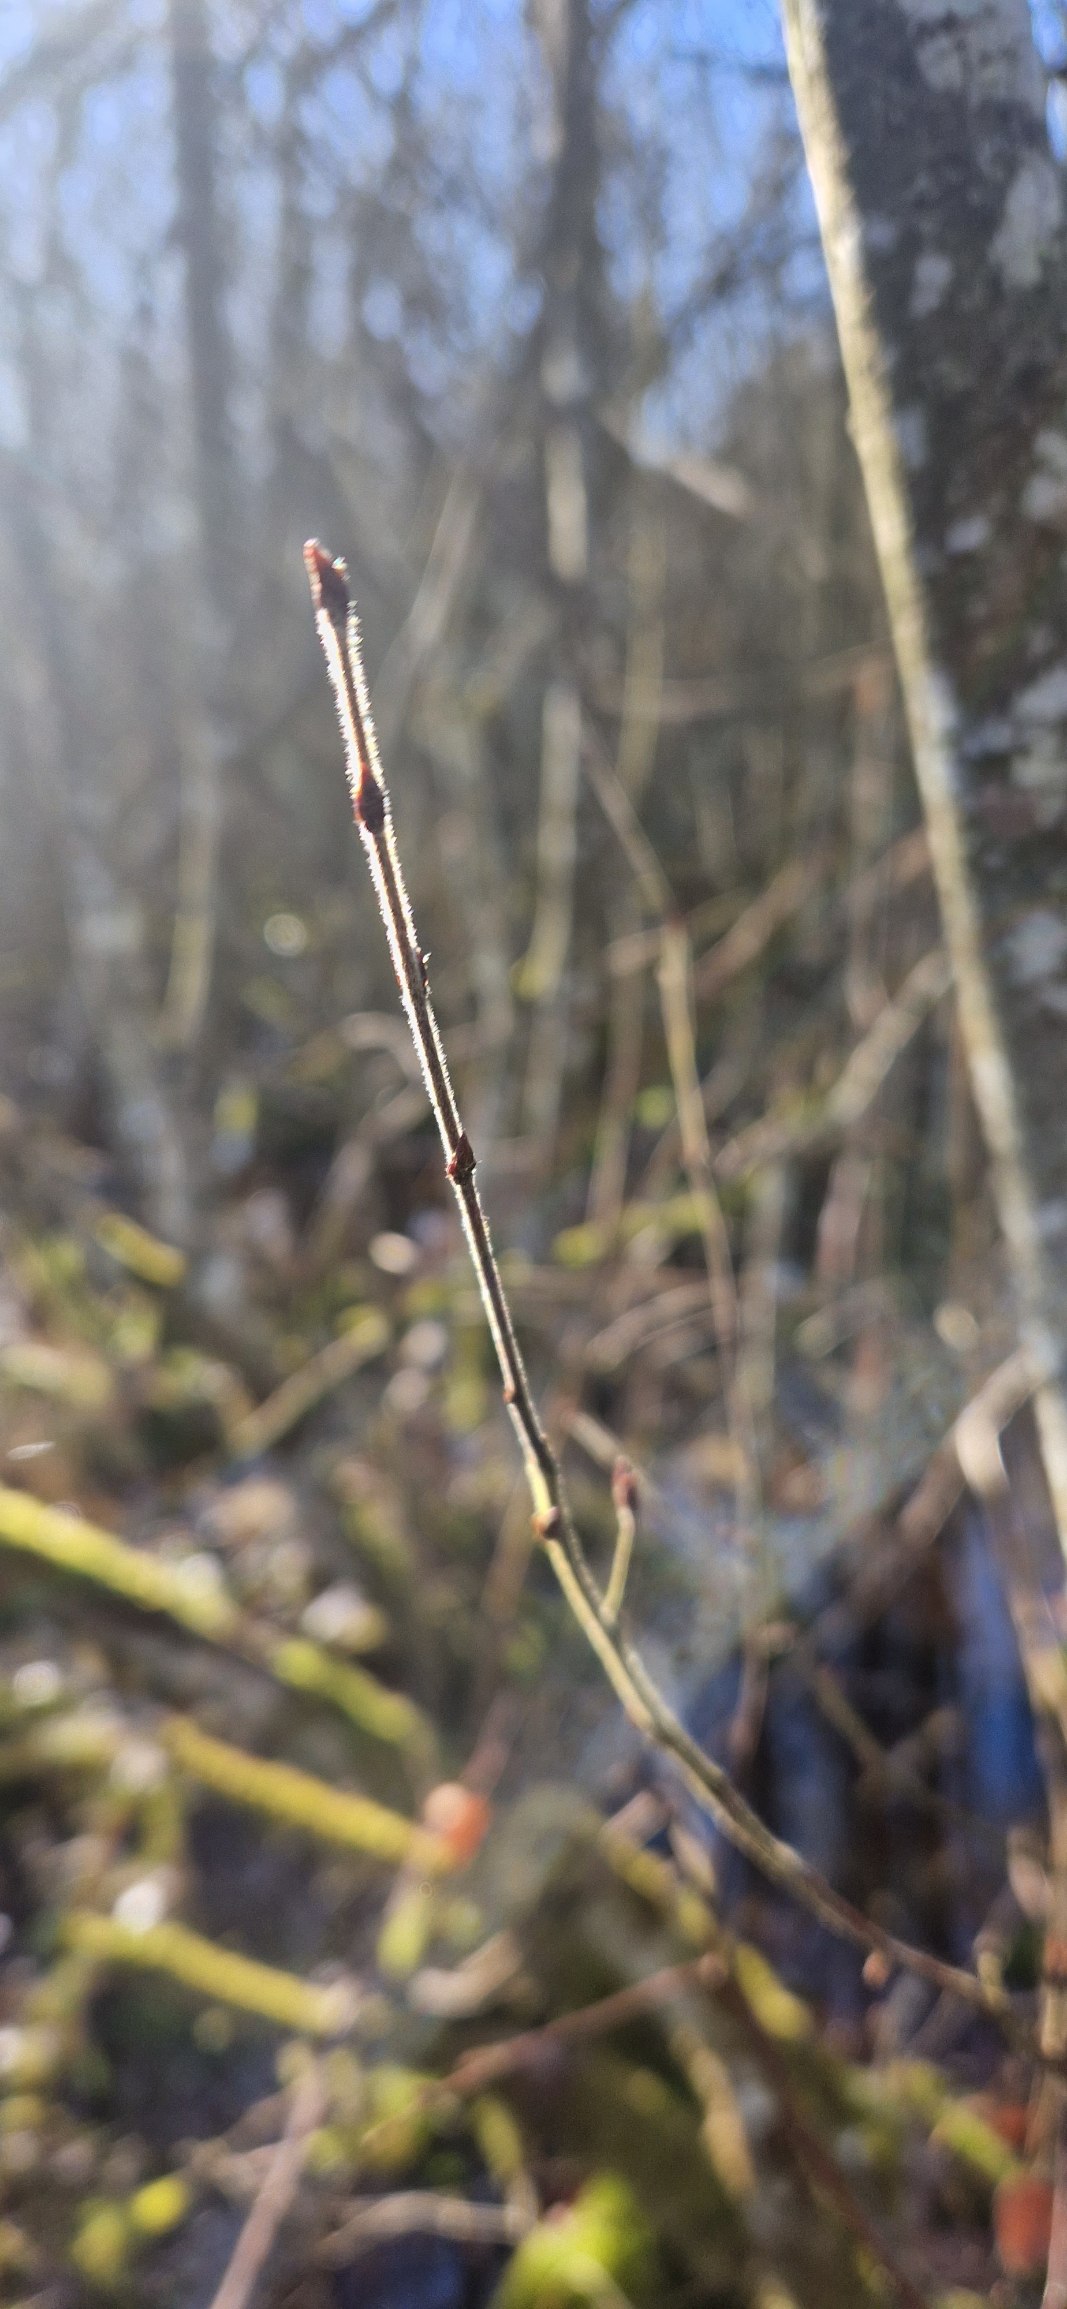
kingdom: Plantae
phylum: Tracheophyta
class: Magnoliopsida
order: Fagales
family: Betulaceae
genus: Betula
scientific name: Betula pubescens
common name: Dun-birk
